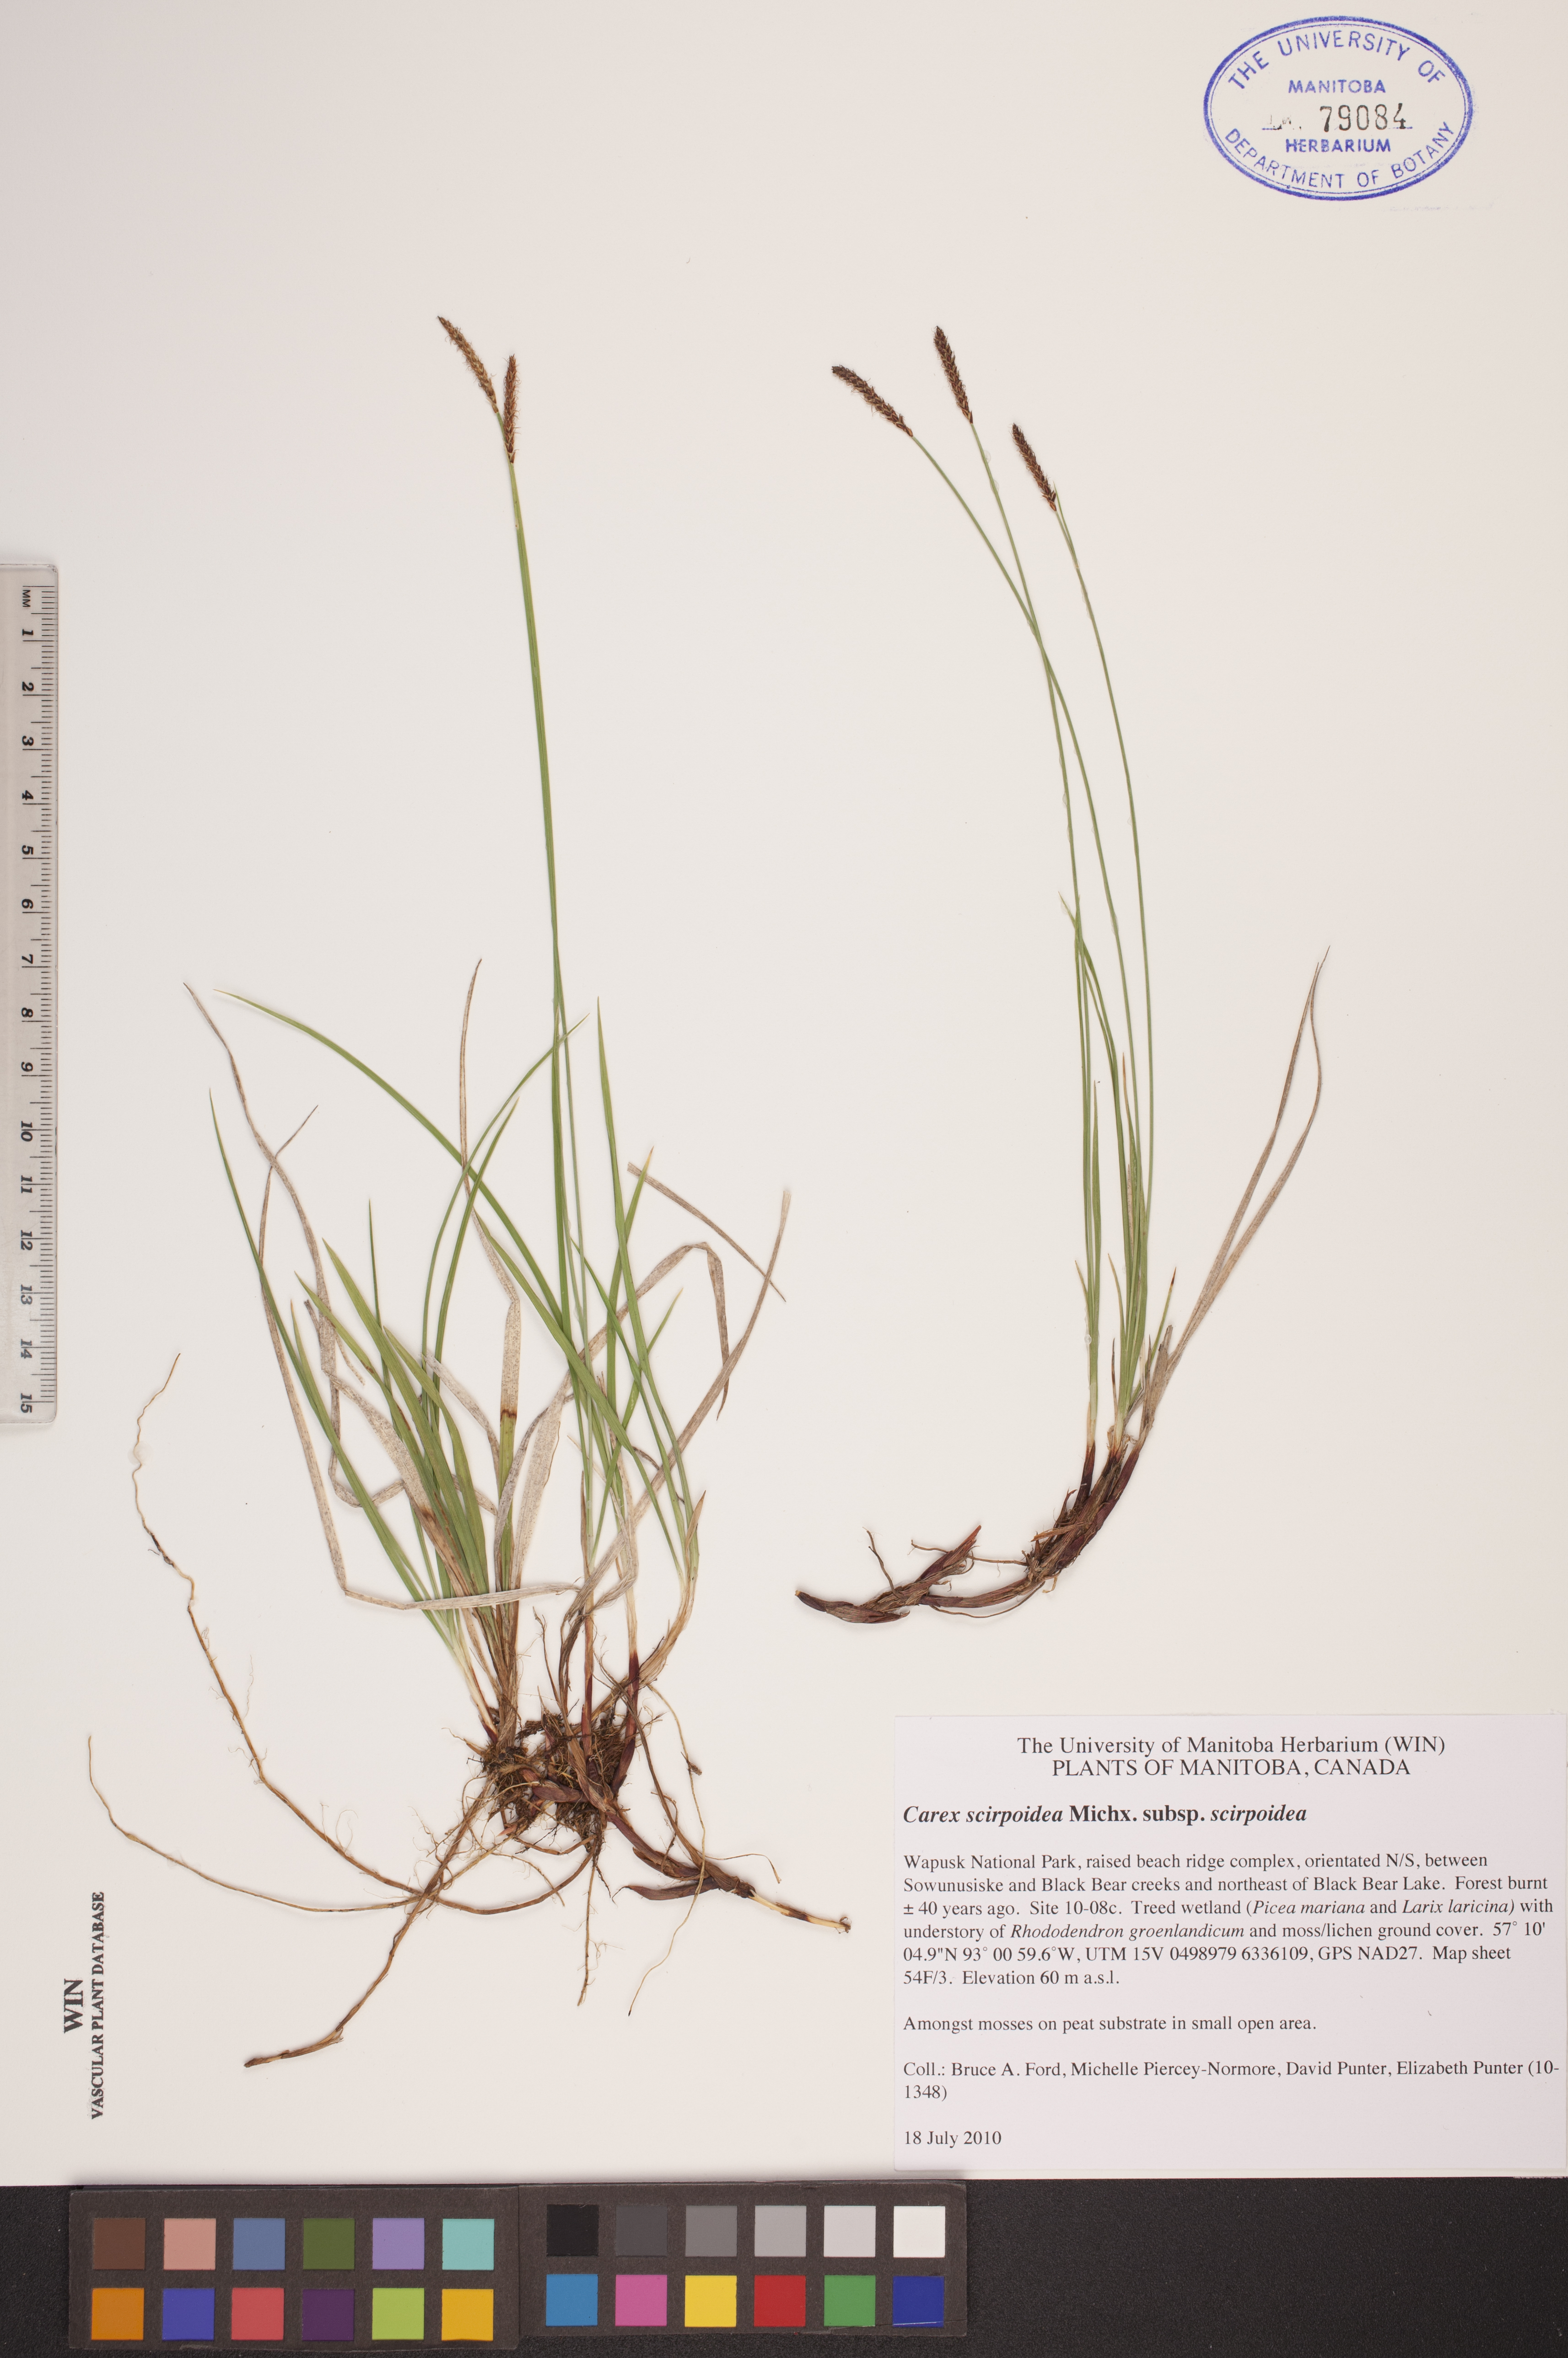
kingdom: Plantae
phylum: Tracheophyta
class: Liliopsida
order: Poales
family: Cyperaceae
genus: Carex
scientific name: Carex scirpoidea
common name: Canada single-spike sedge
